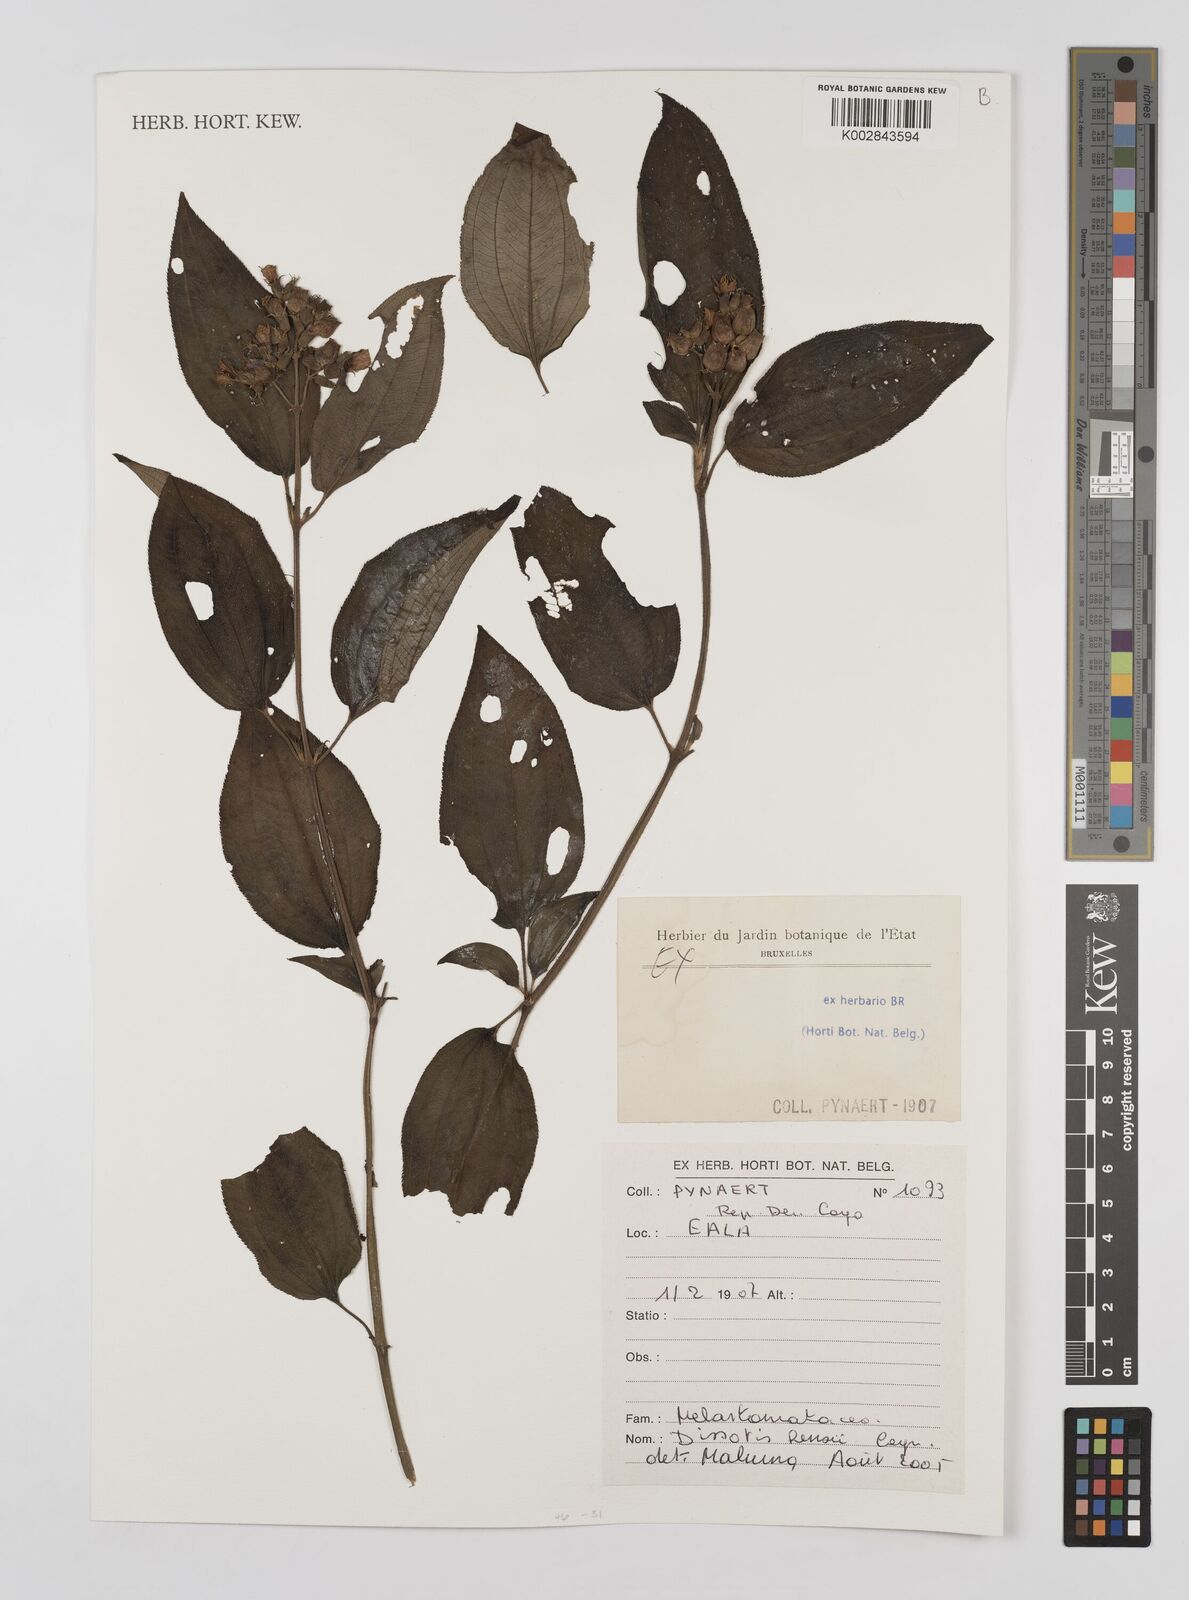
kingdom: Plantae
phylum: Tracheophyta
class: Magnoliopsida
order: Myrtales
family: Melastomataceae
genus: Dupineta
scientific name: Dupineta hensii
